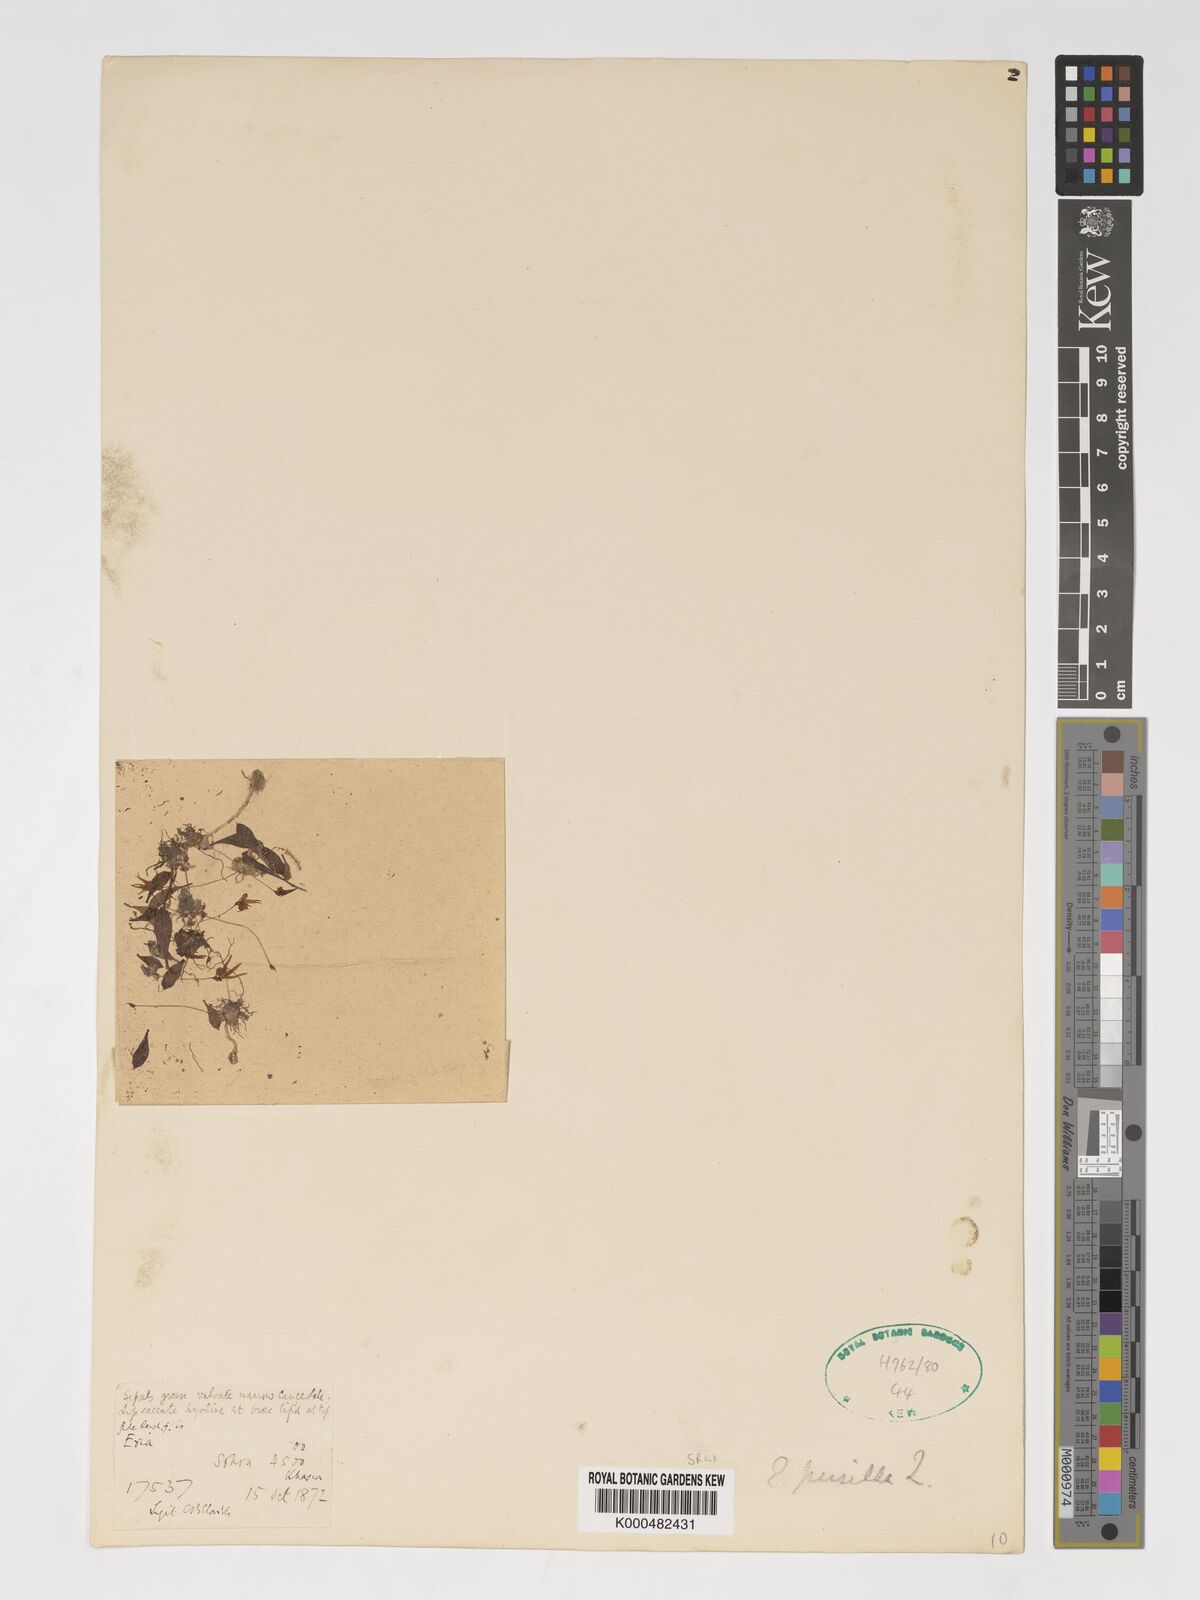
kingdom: Plantae
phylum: Tracheophyta
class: Liliopsida
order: Asparagales
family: Orchidaceae
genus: Porpax
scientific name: Porpax pusilla
